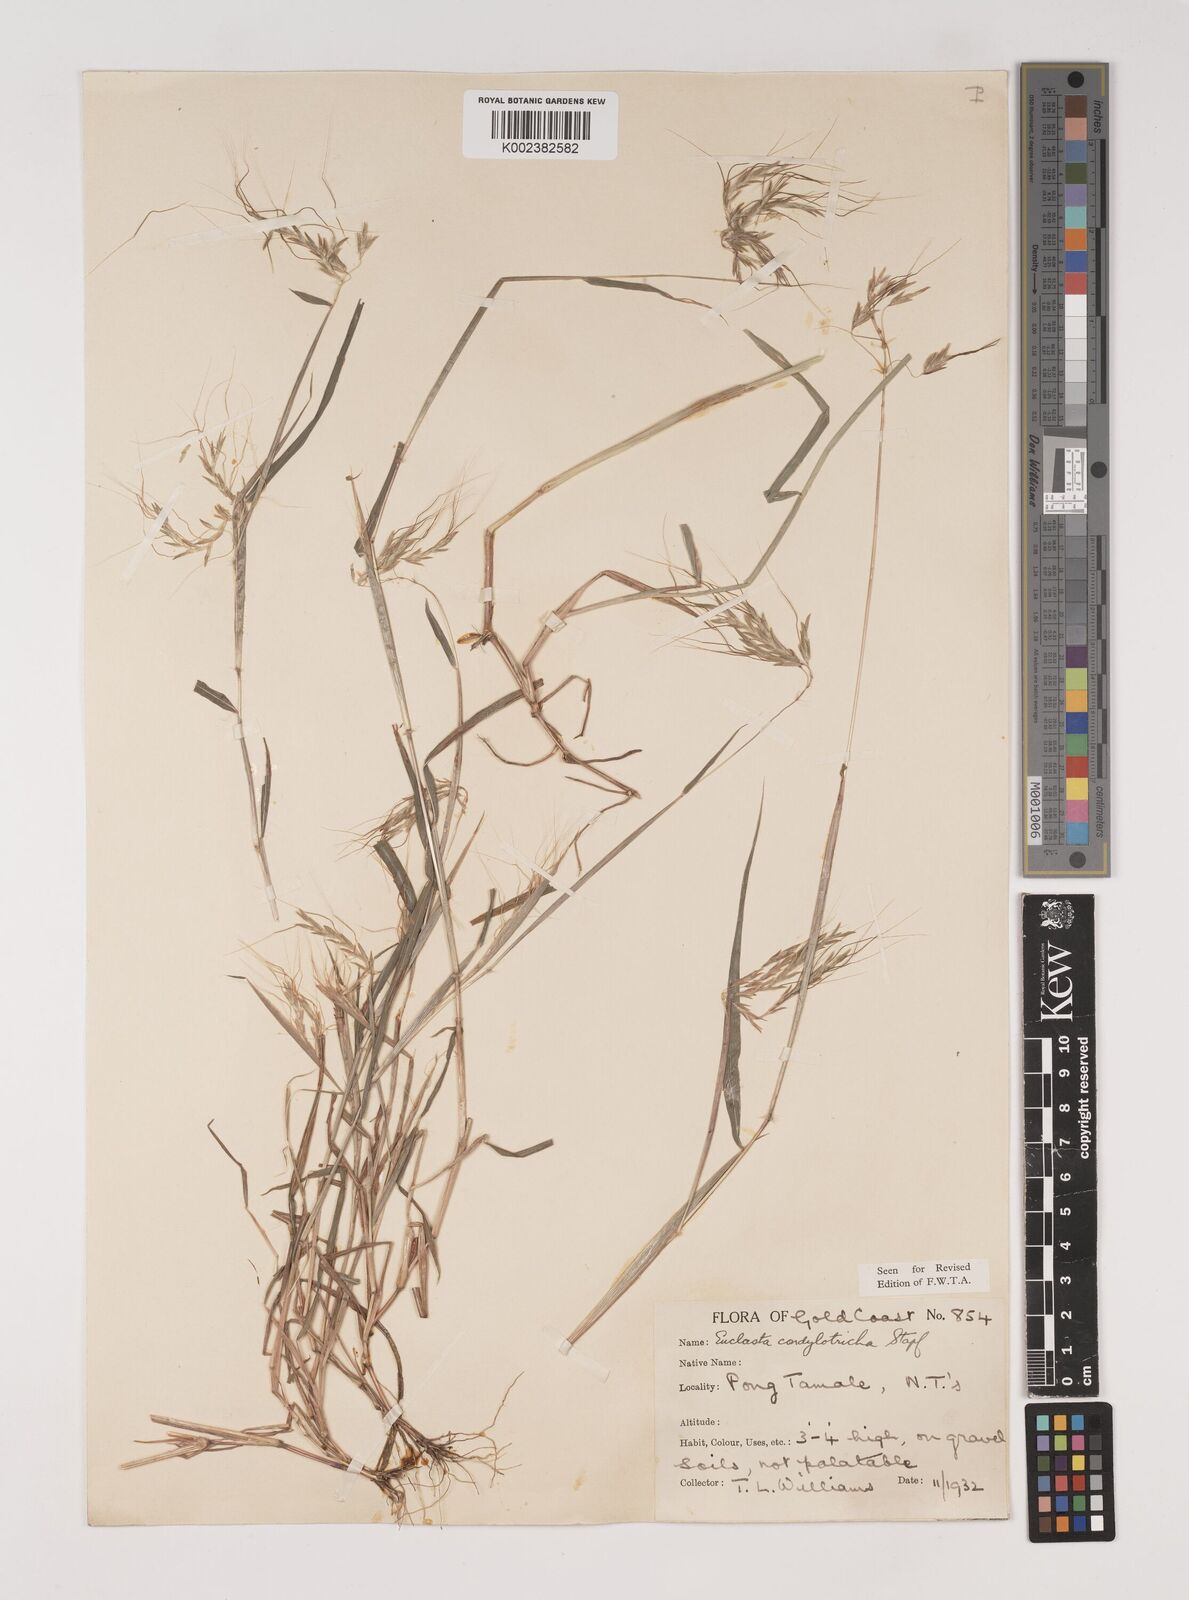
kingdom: Plantae
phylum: Tracheophyta
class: Liliopsida
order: Poales
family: Poaceae
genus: Euclasta
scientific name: Euclasta condylotricha
